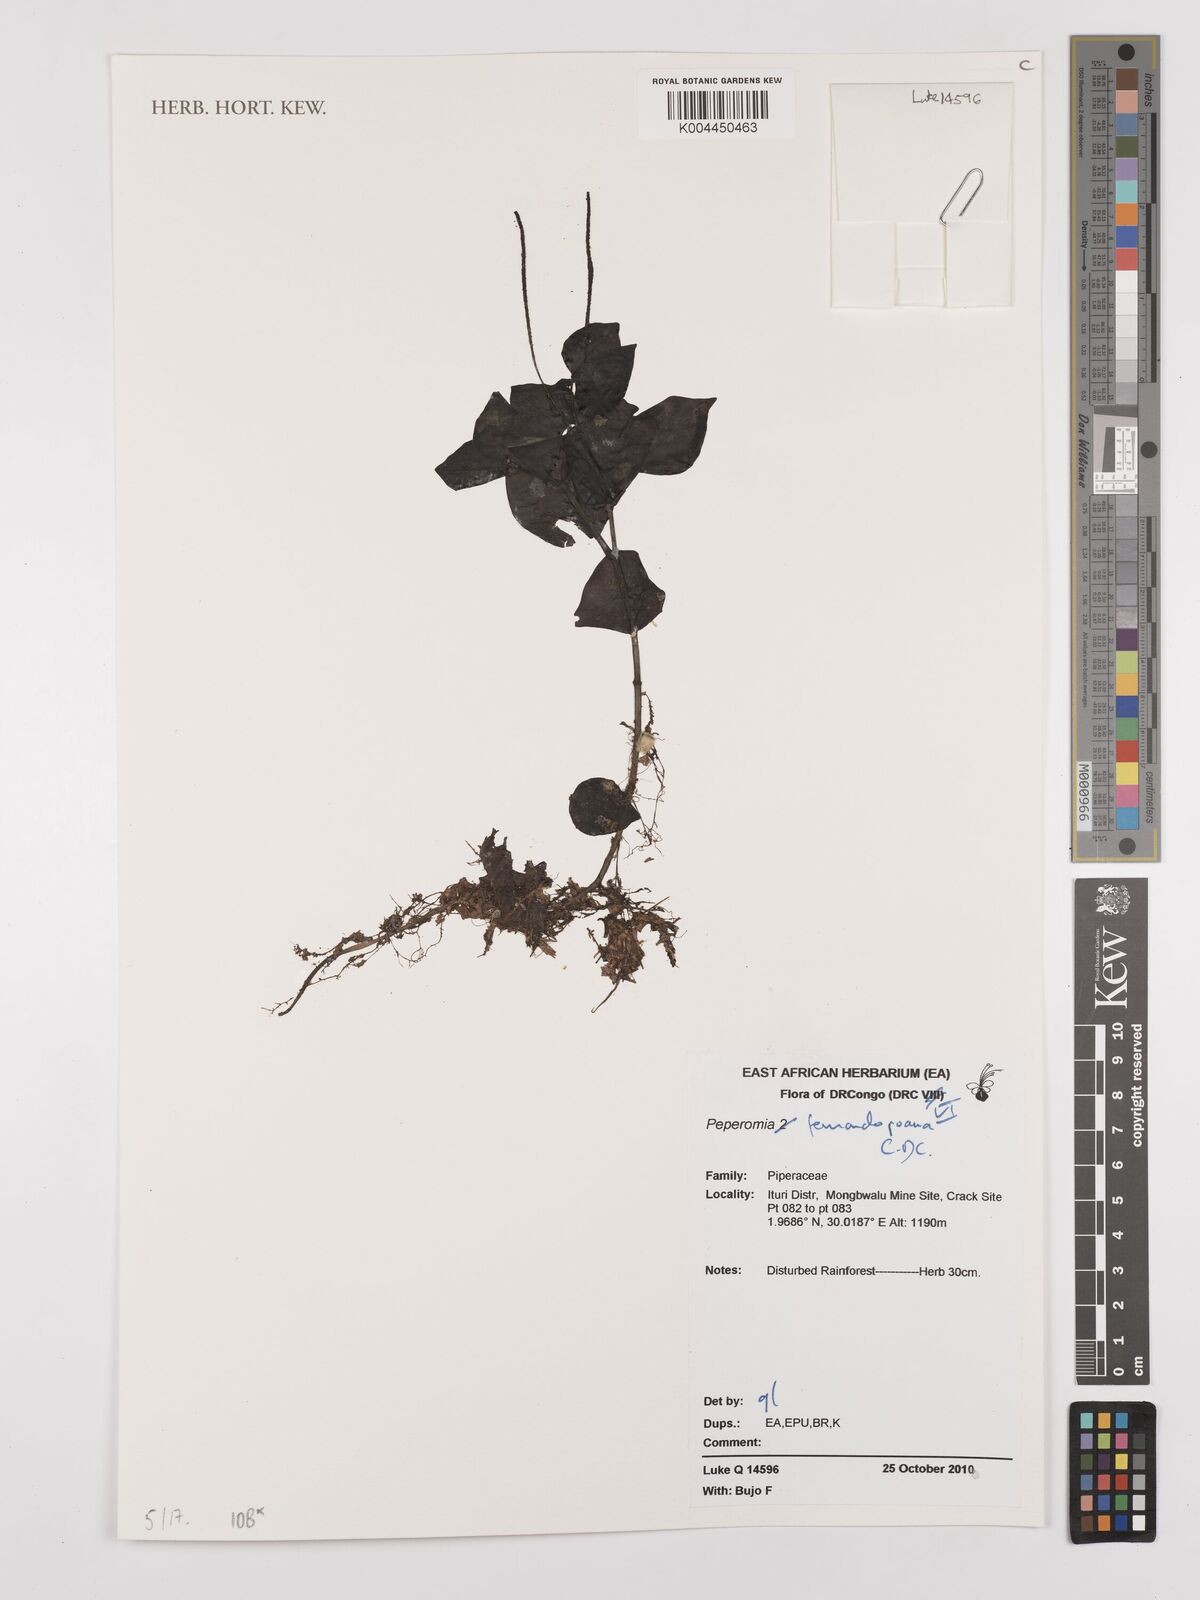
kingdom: Plantae
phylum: Tracheophyta
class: Magnoliopsida
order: Piperales
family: Piperaceae
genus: Peperomia
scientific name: Peperomia fernandopoiana
